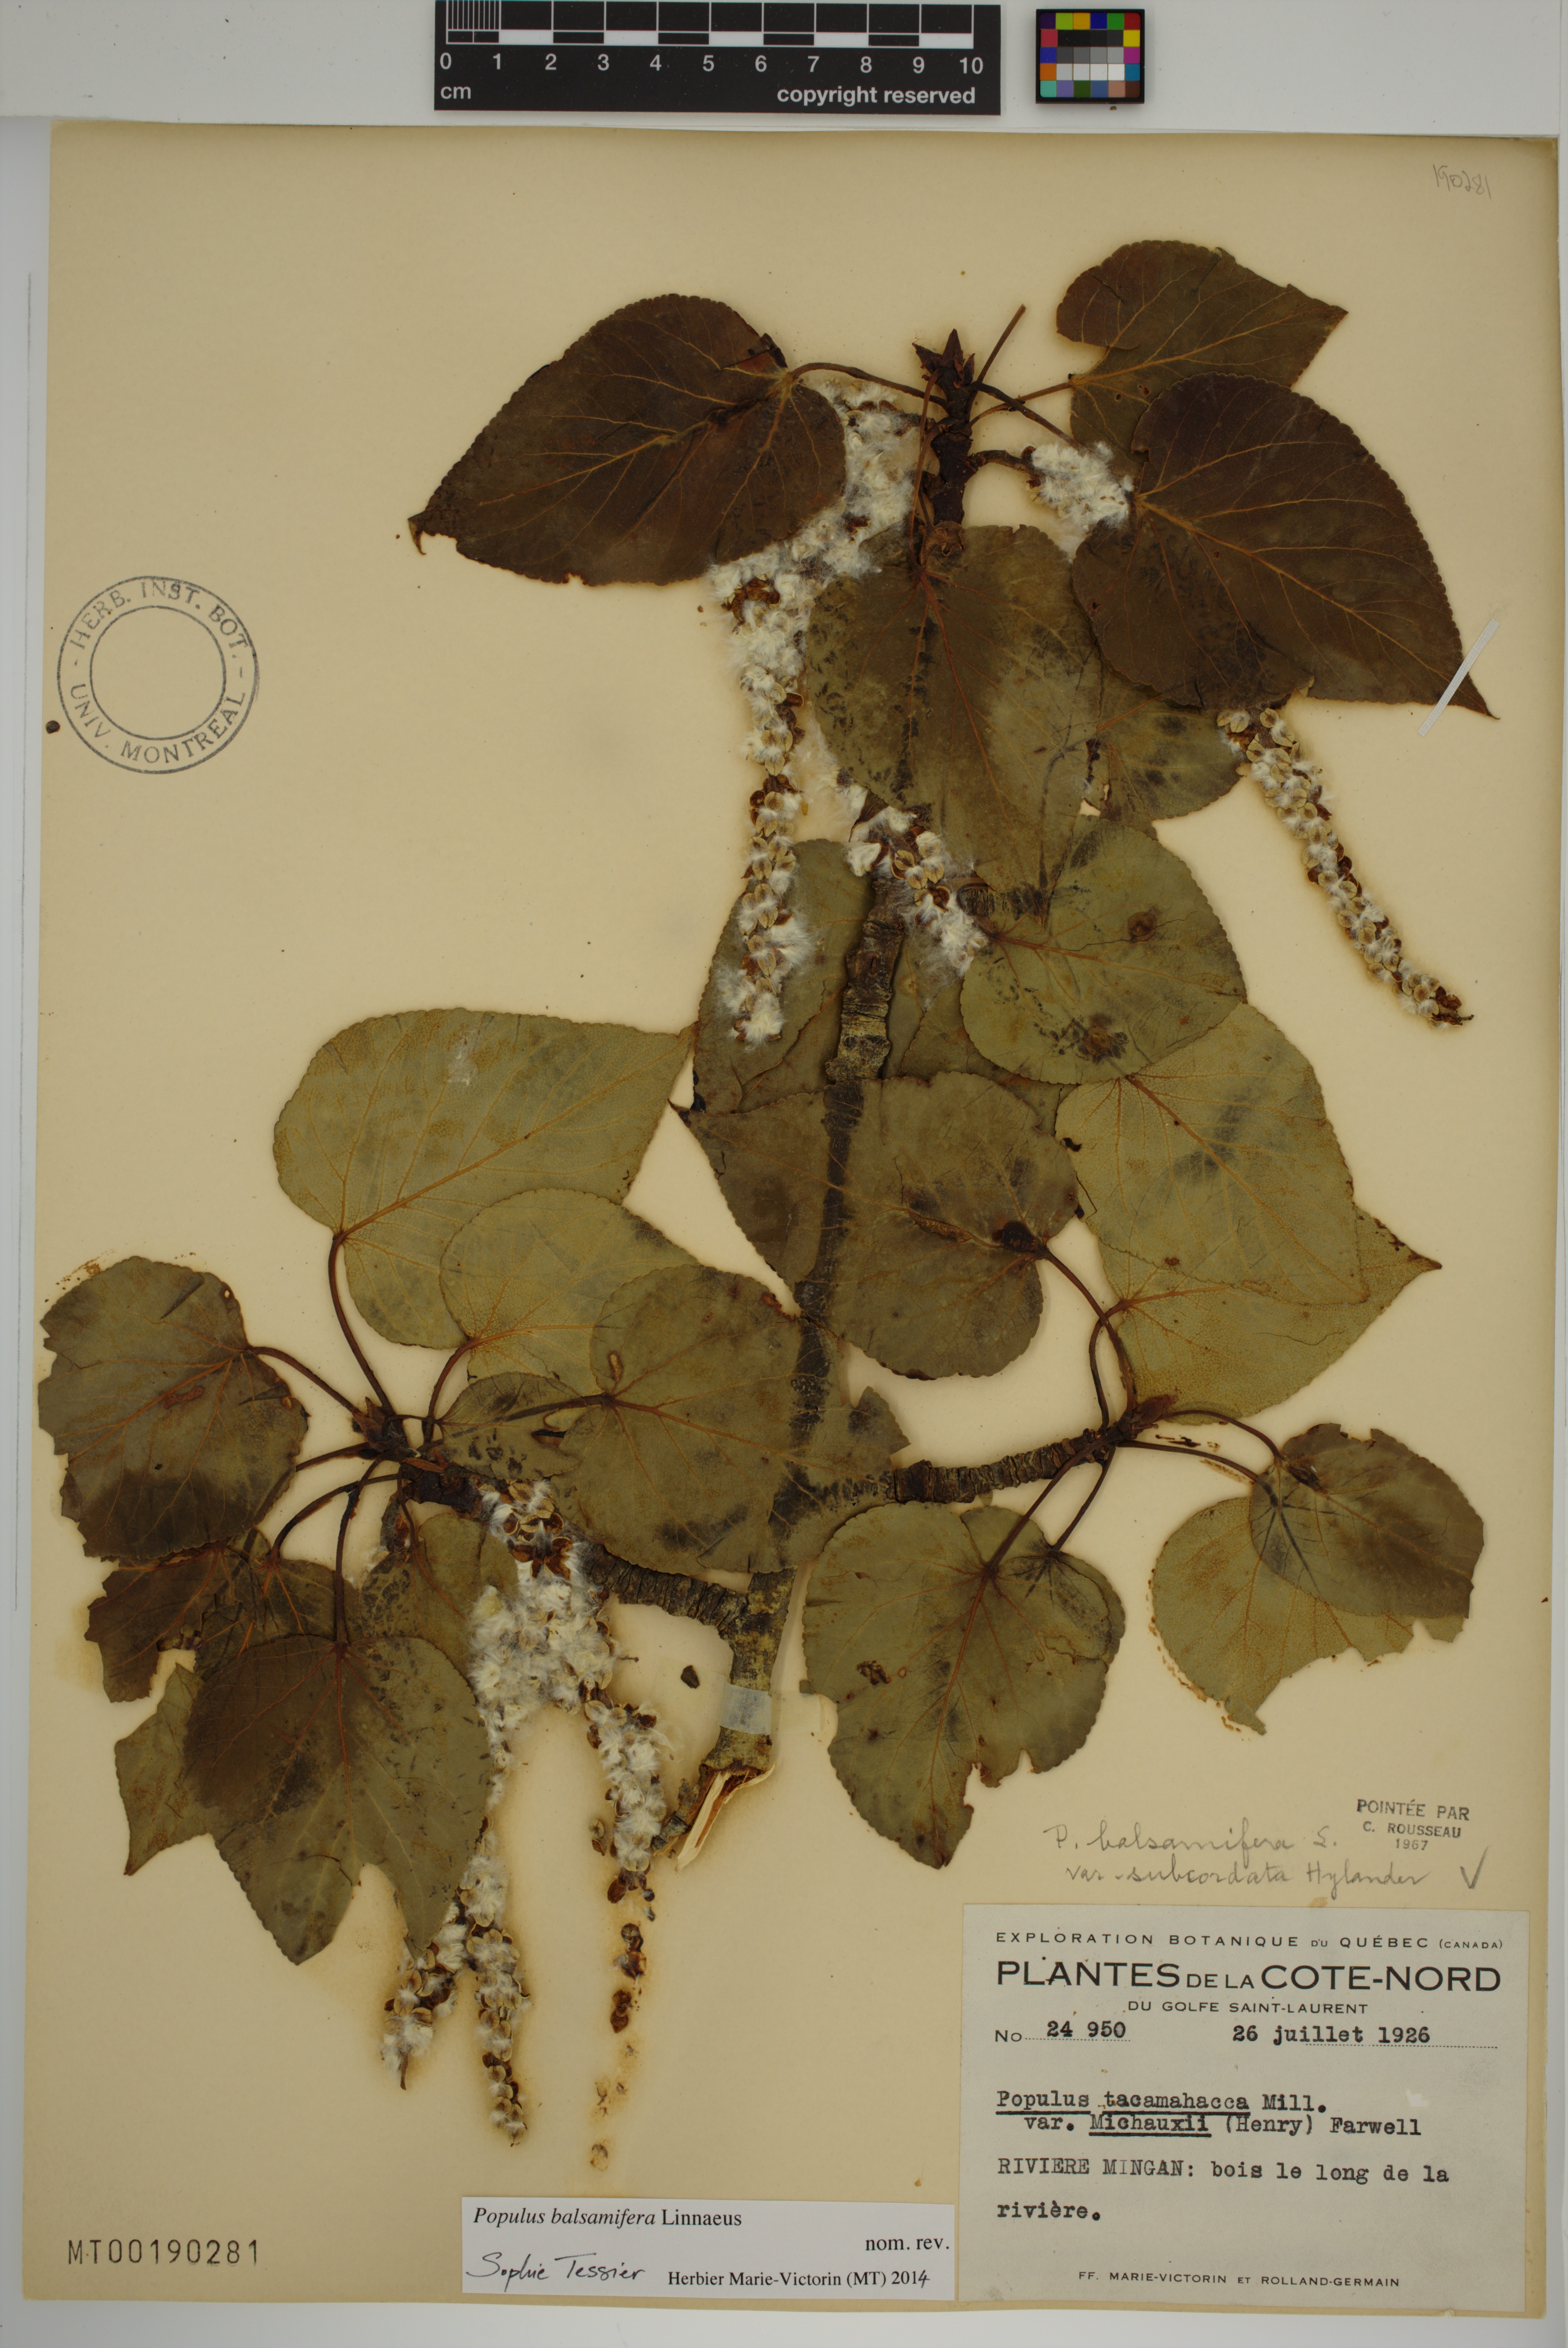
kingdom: Plantae
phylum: Tracheophyta
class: Magnoliopsida
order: Malpighiales
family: Salicaceae
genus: Populus
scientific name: Populus balsamifera
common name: Balsam poplar
